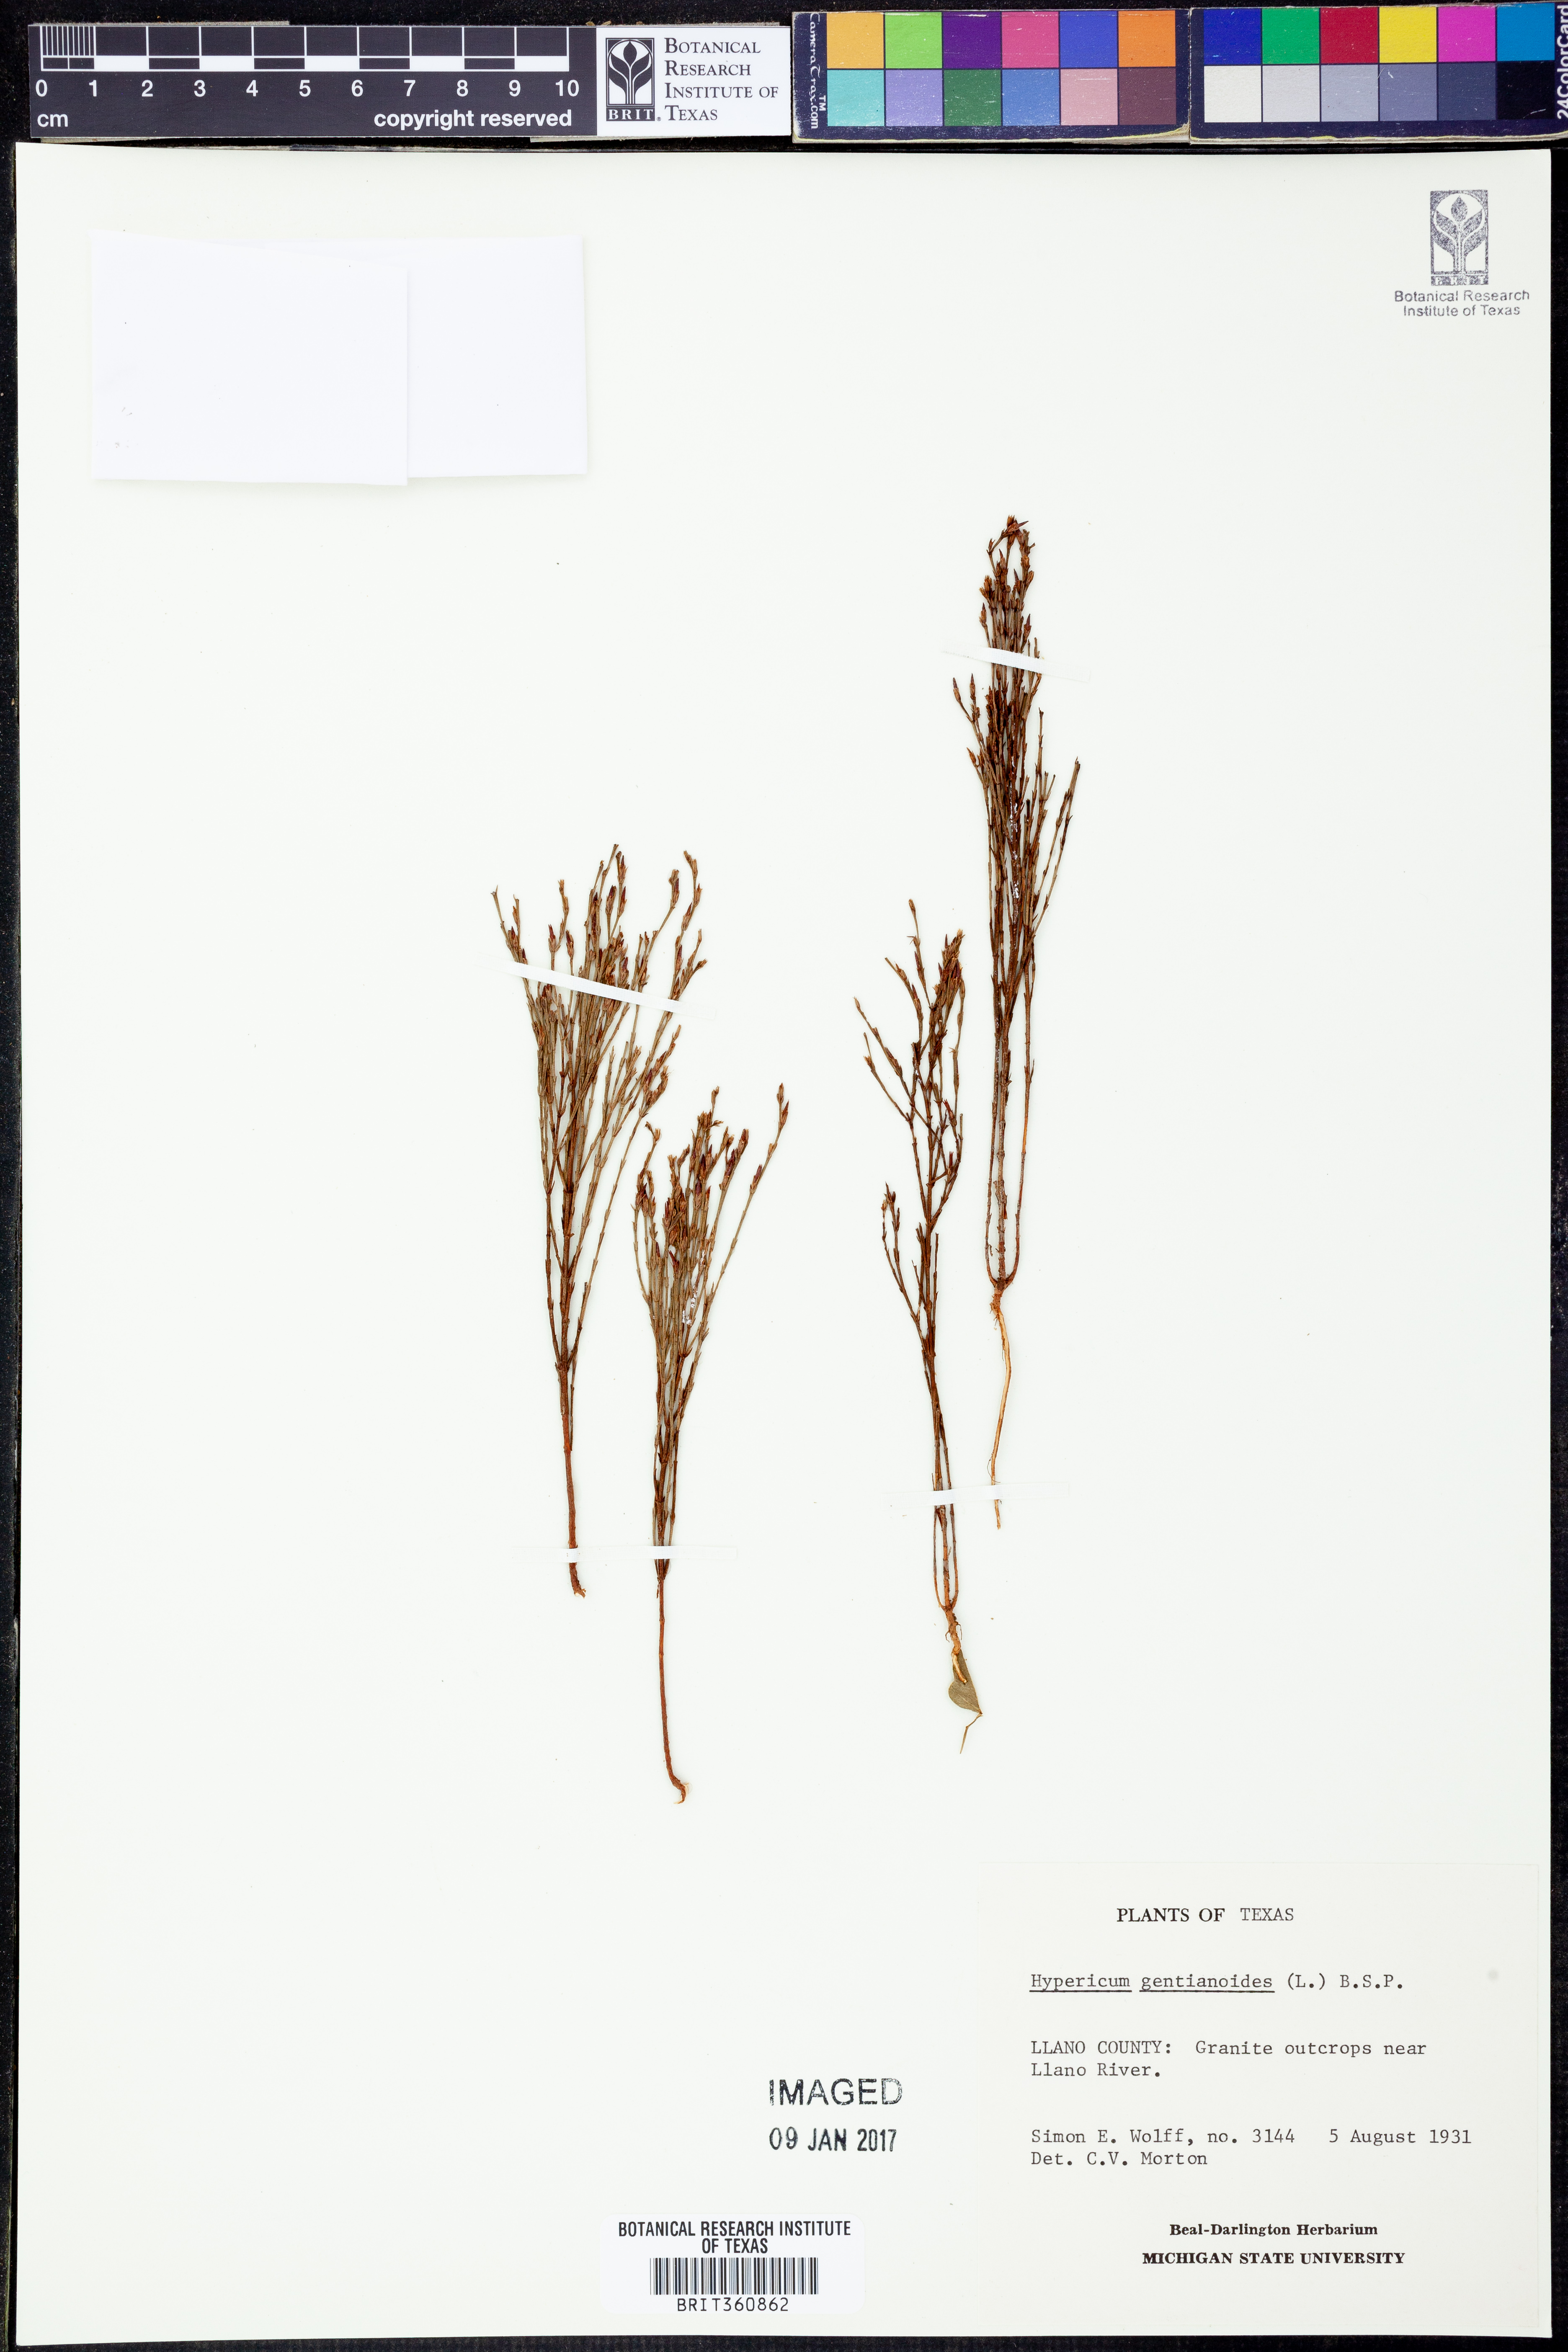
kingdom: Plantae
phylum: Tracheophyta
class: Magnoliopsida
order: Malpighiales
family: Hypericaceae
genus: Hypericum
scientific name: Hypericum gentianoides
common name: Gentian-leaved st. john's-wort
